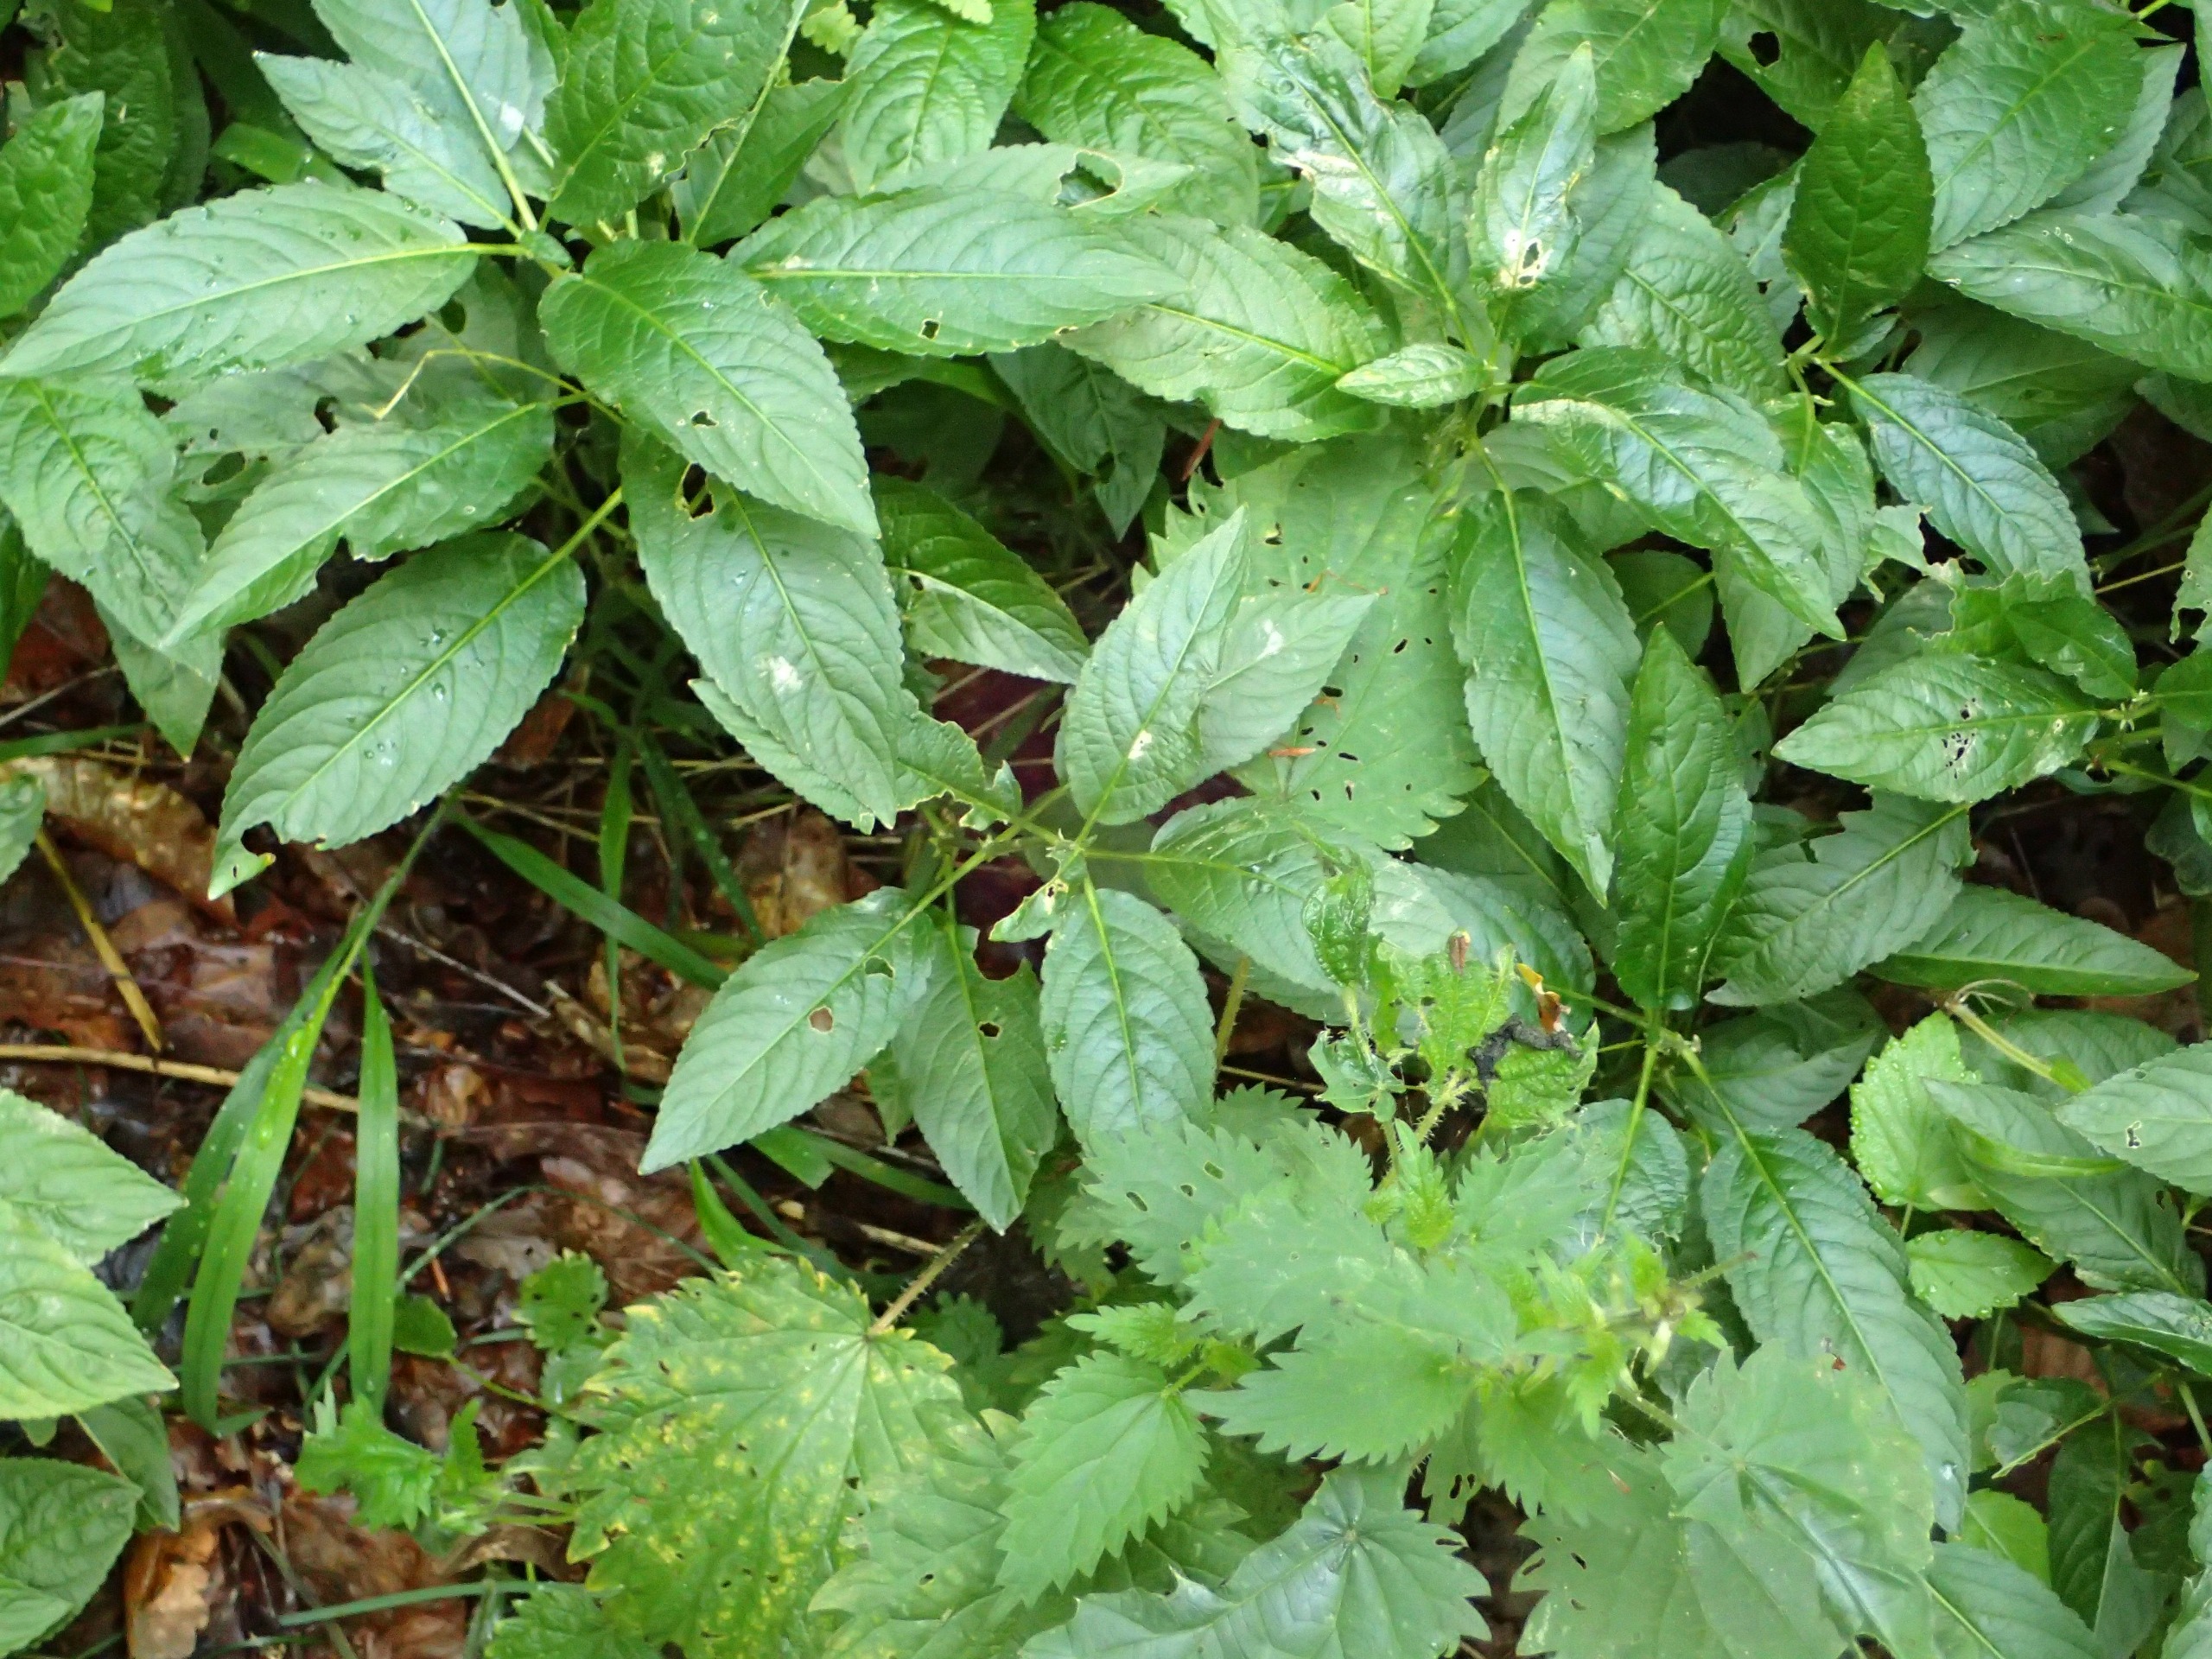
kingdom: Plantae
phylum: Tracheophyta
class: Magnoliopsida
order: Malpighiales
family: Euphorbiaceae
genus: Mercurialis
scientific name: Mercurialis perennis
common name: Almindelig bingelurt
